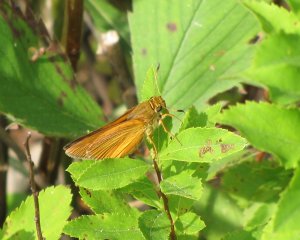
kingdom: Animalia
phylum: Arthropoda
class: Insecta
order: Lepidoptera
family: Hesperiidae
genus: Euphyes
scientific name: Euphyes dion
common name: Dion Skipper
